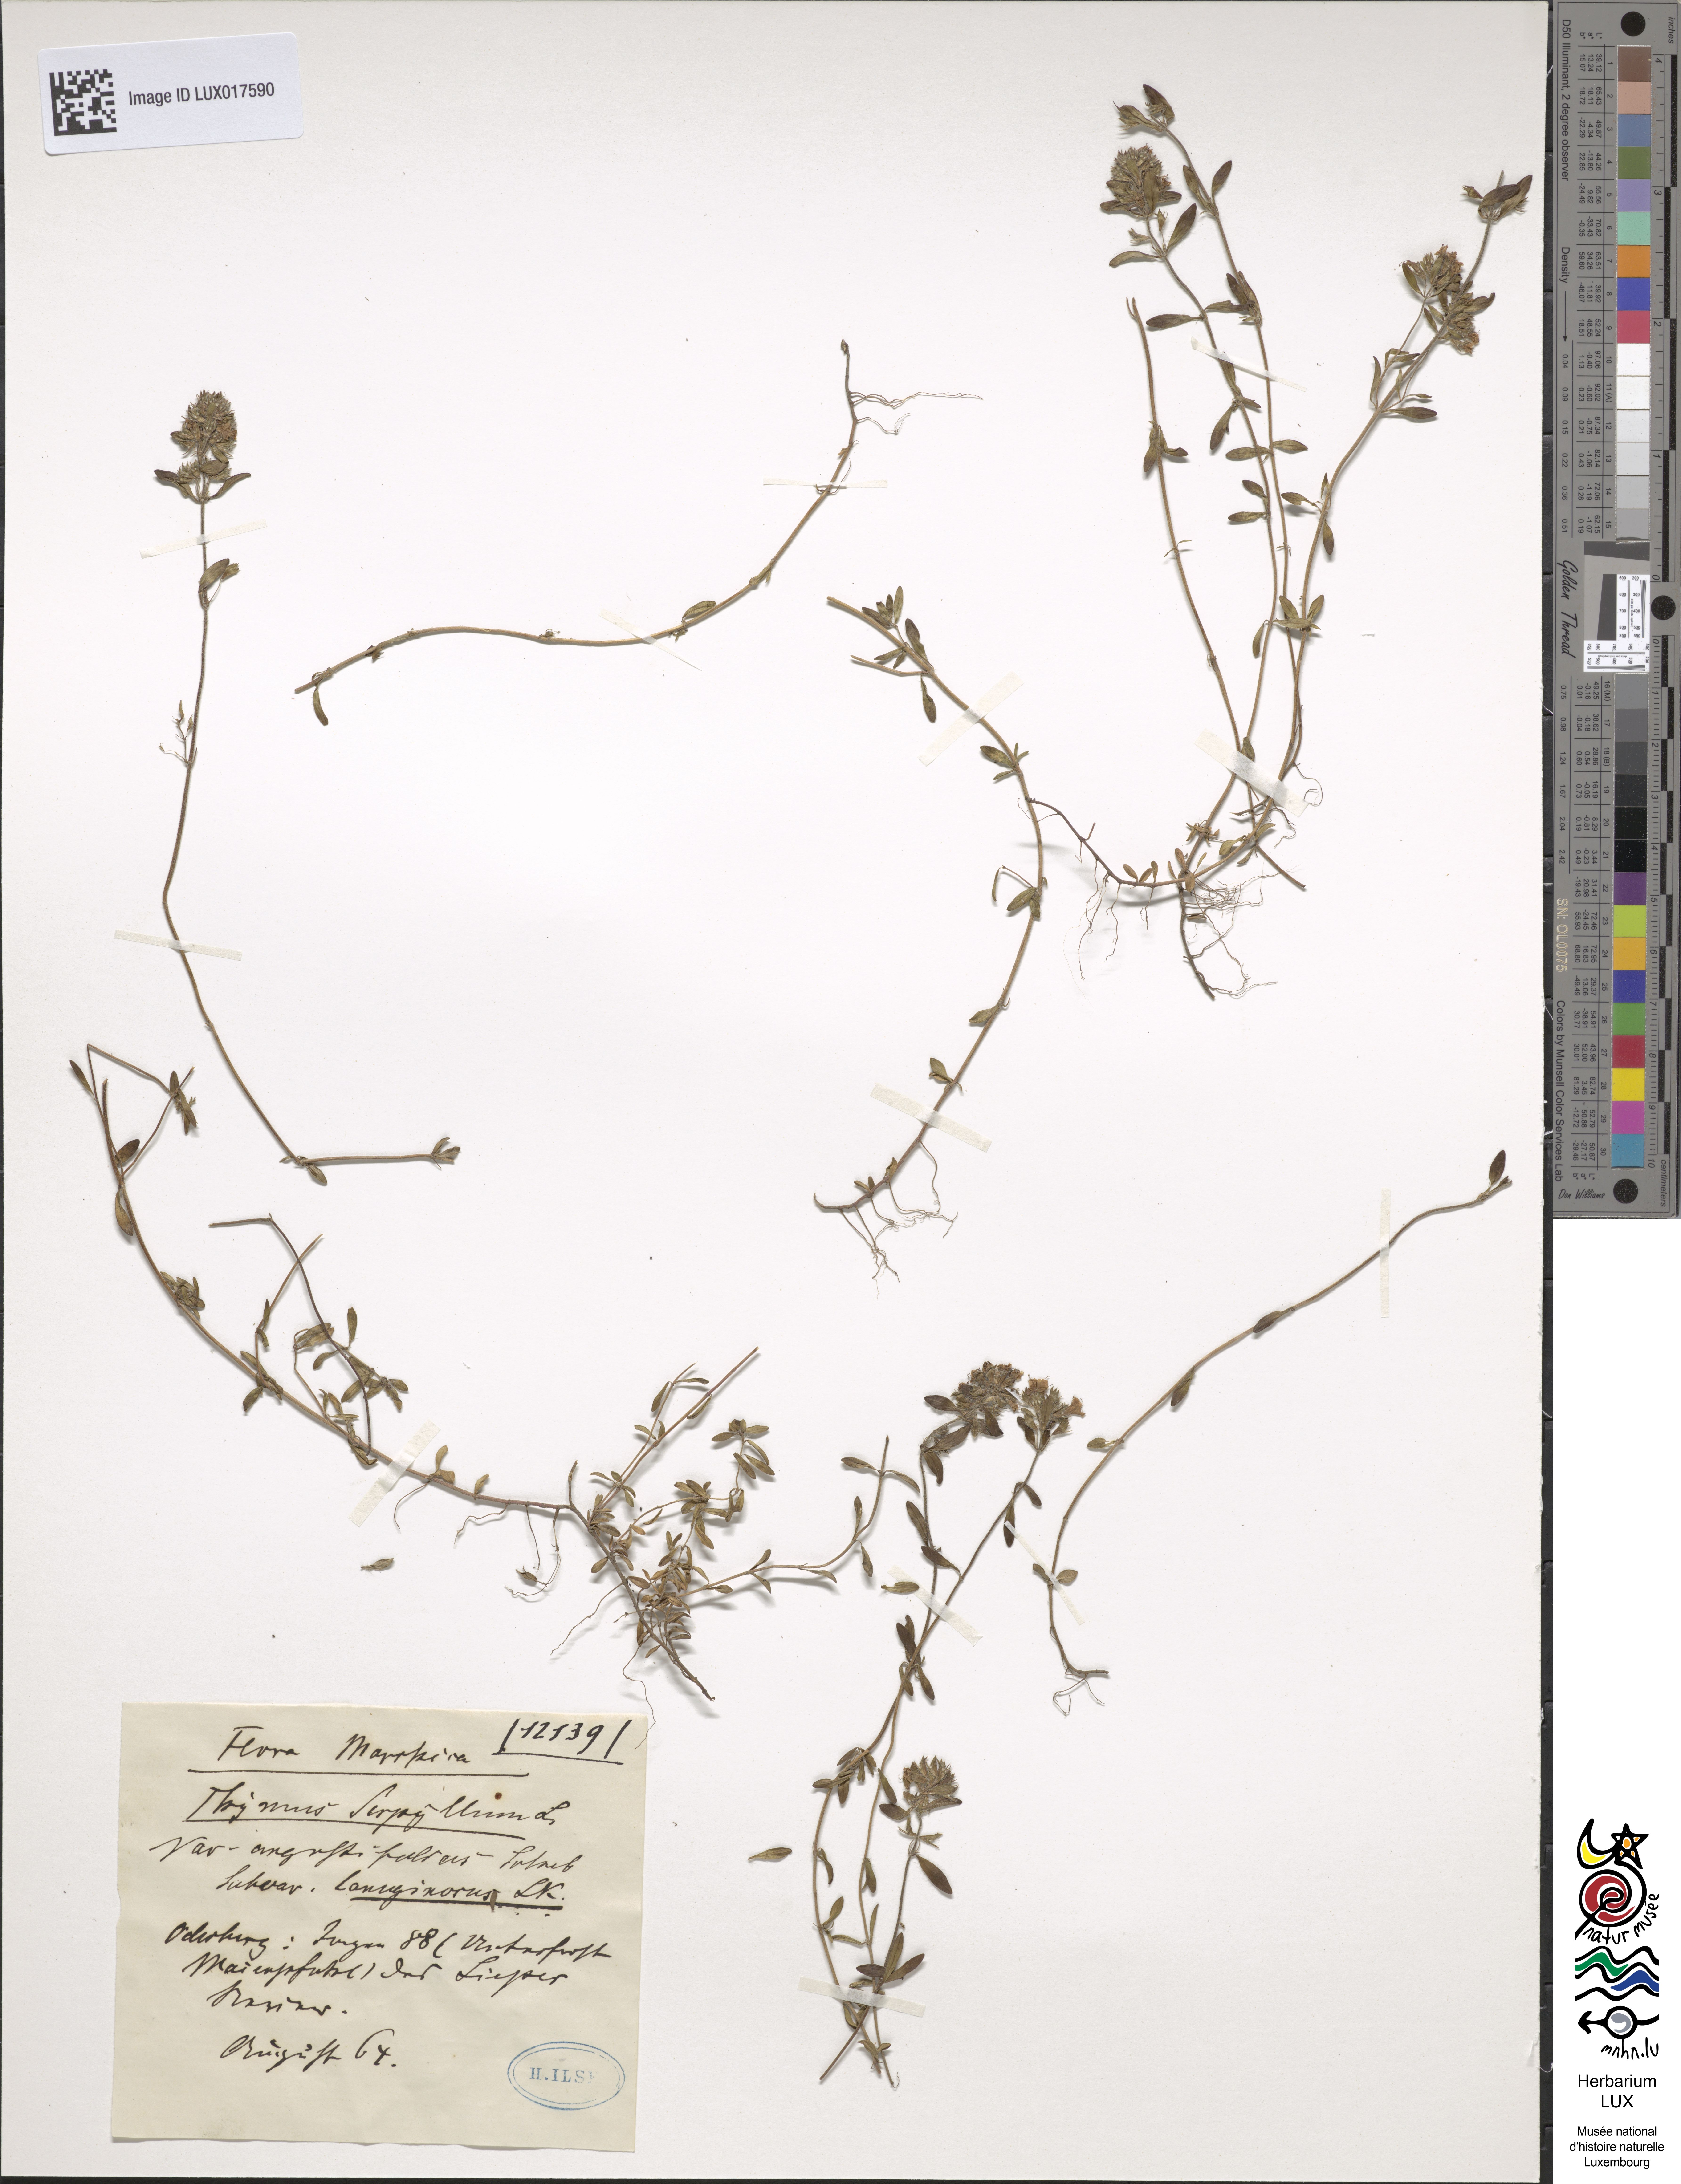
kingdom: Plantae
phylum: Tracheophyta
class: Magnoliopsida
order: Lamiales
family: Lamiaceae
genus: Thymus
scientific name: Thymus serpyllum
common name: Breckland thyme
